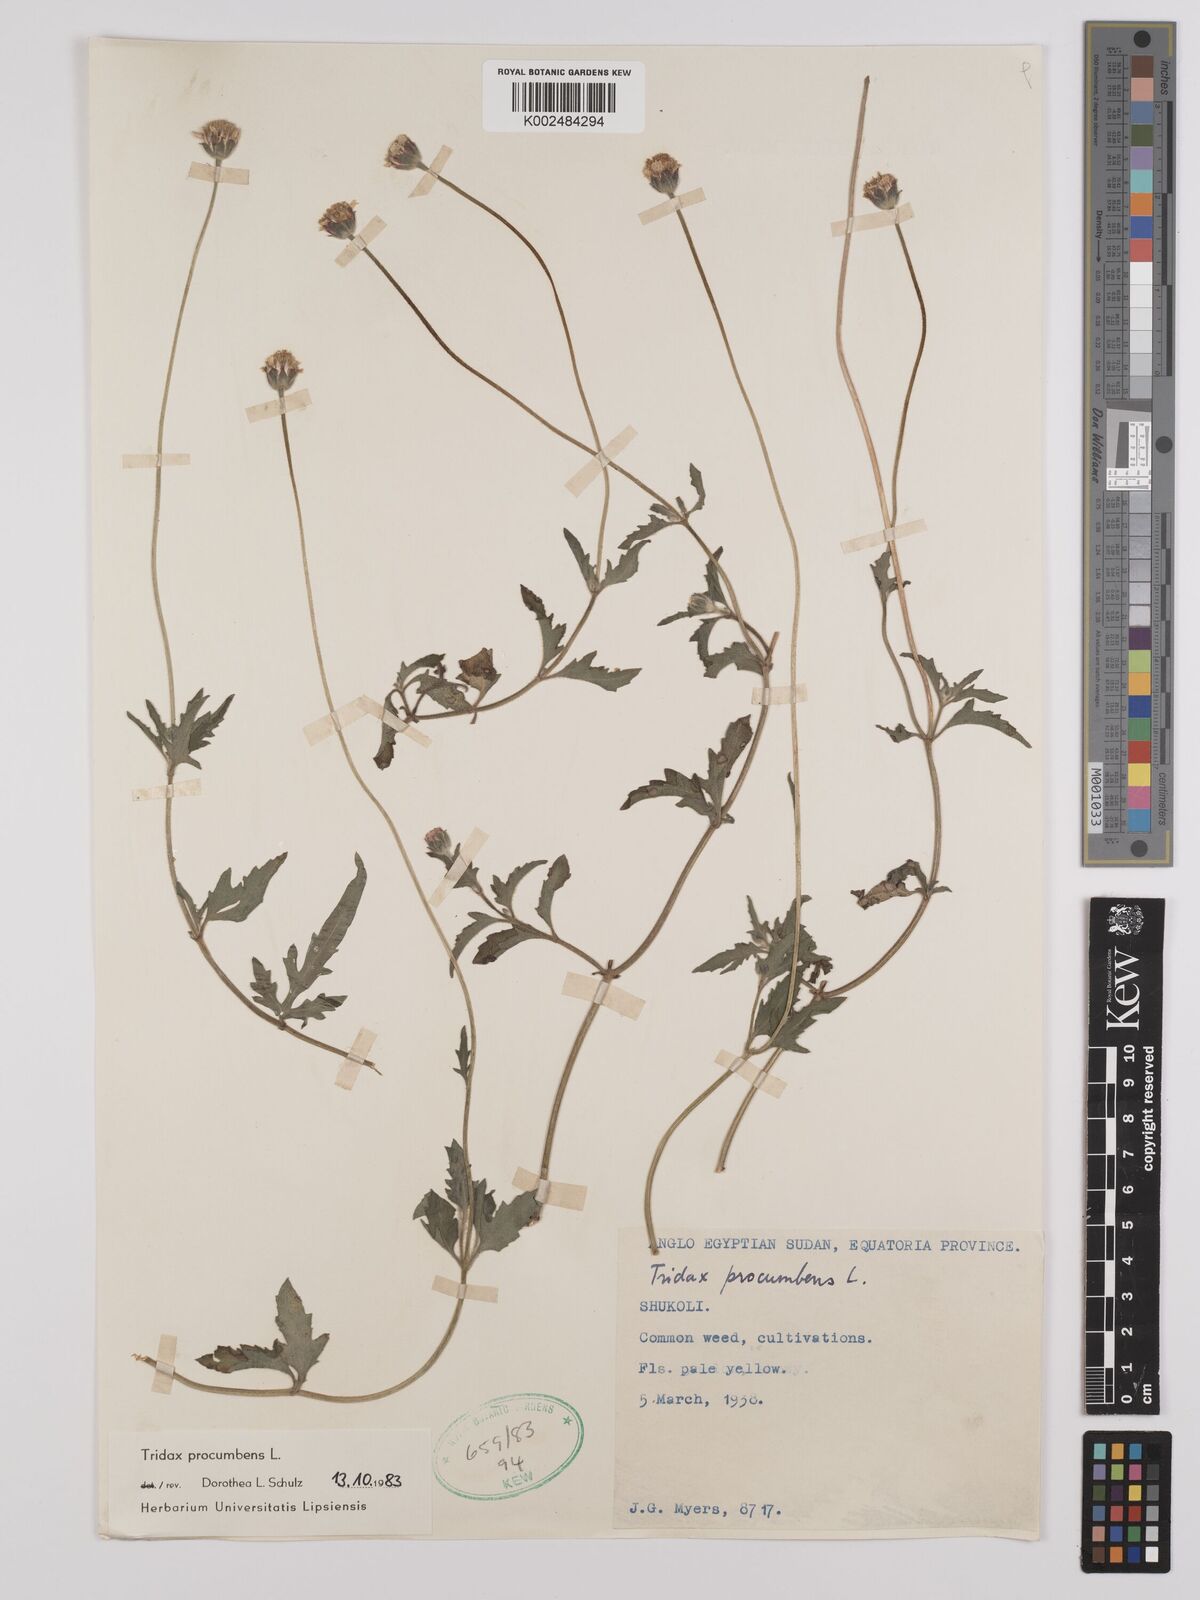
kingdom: Plantae
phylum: Tracheophyta
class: Magnoliopsida
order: Asterales
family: Asteraceae
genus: Tridax
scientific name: Tridax procumbens
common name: Coatbuttons
